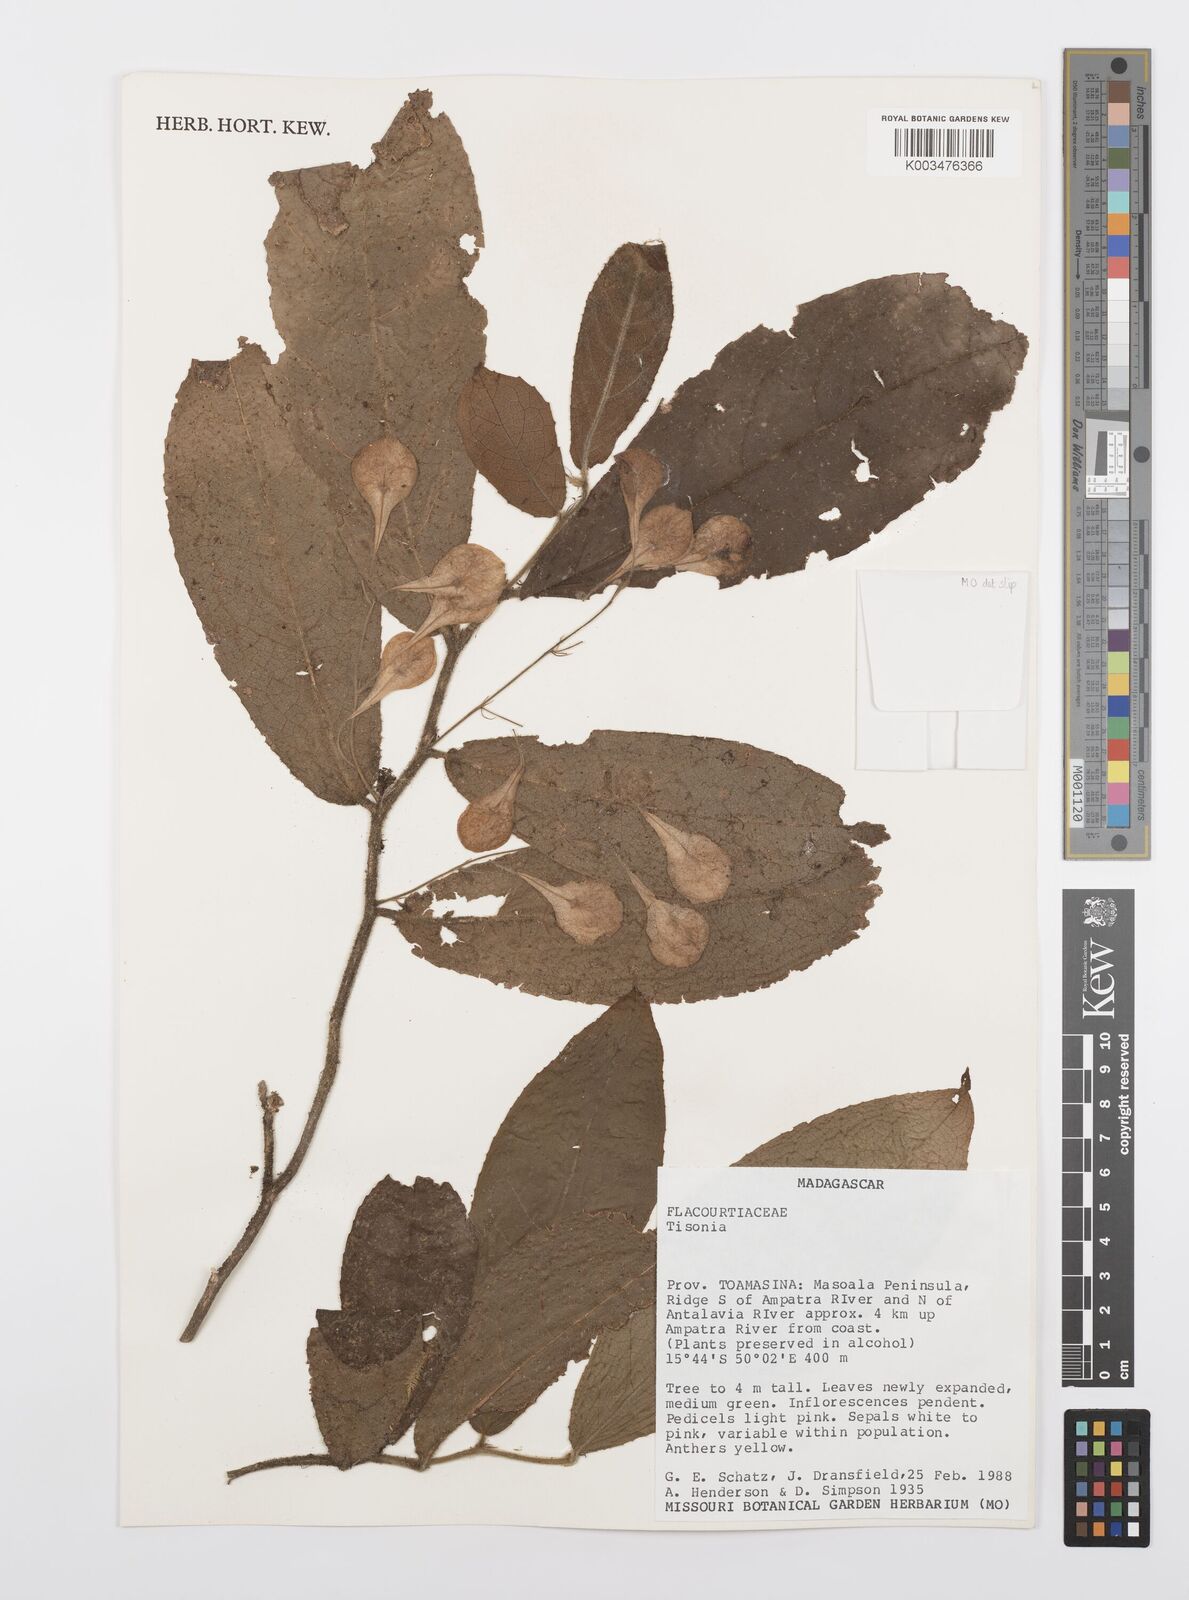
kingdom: Plantae
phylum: Tracheophyta
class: Magnoliopsida
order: Malpighiales
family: Salicaceae
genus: Tisonia
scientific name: Tisonia
